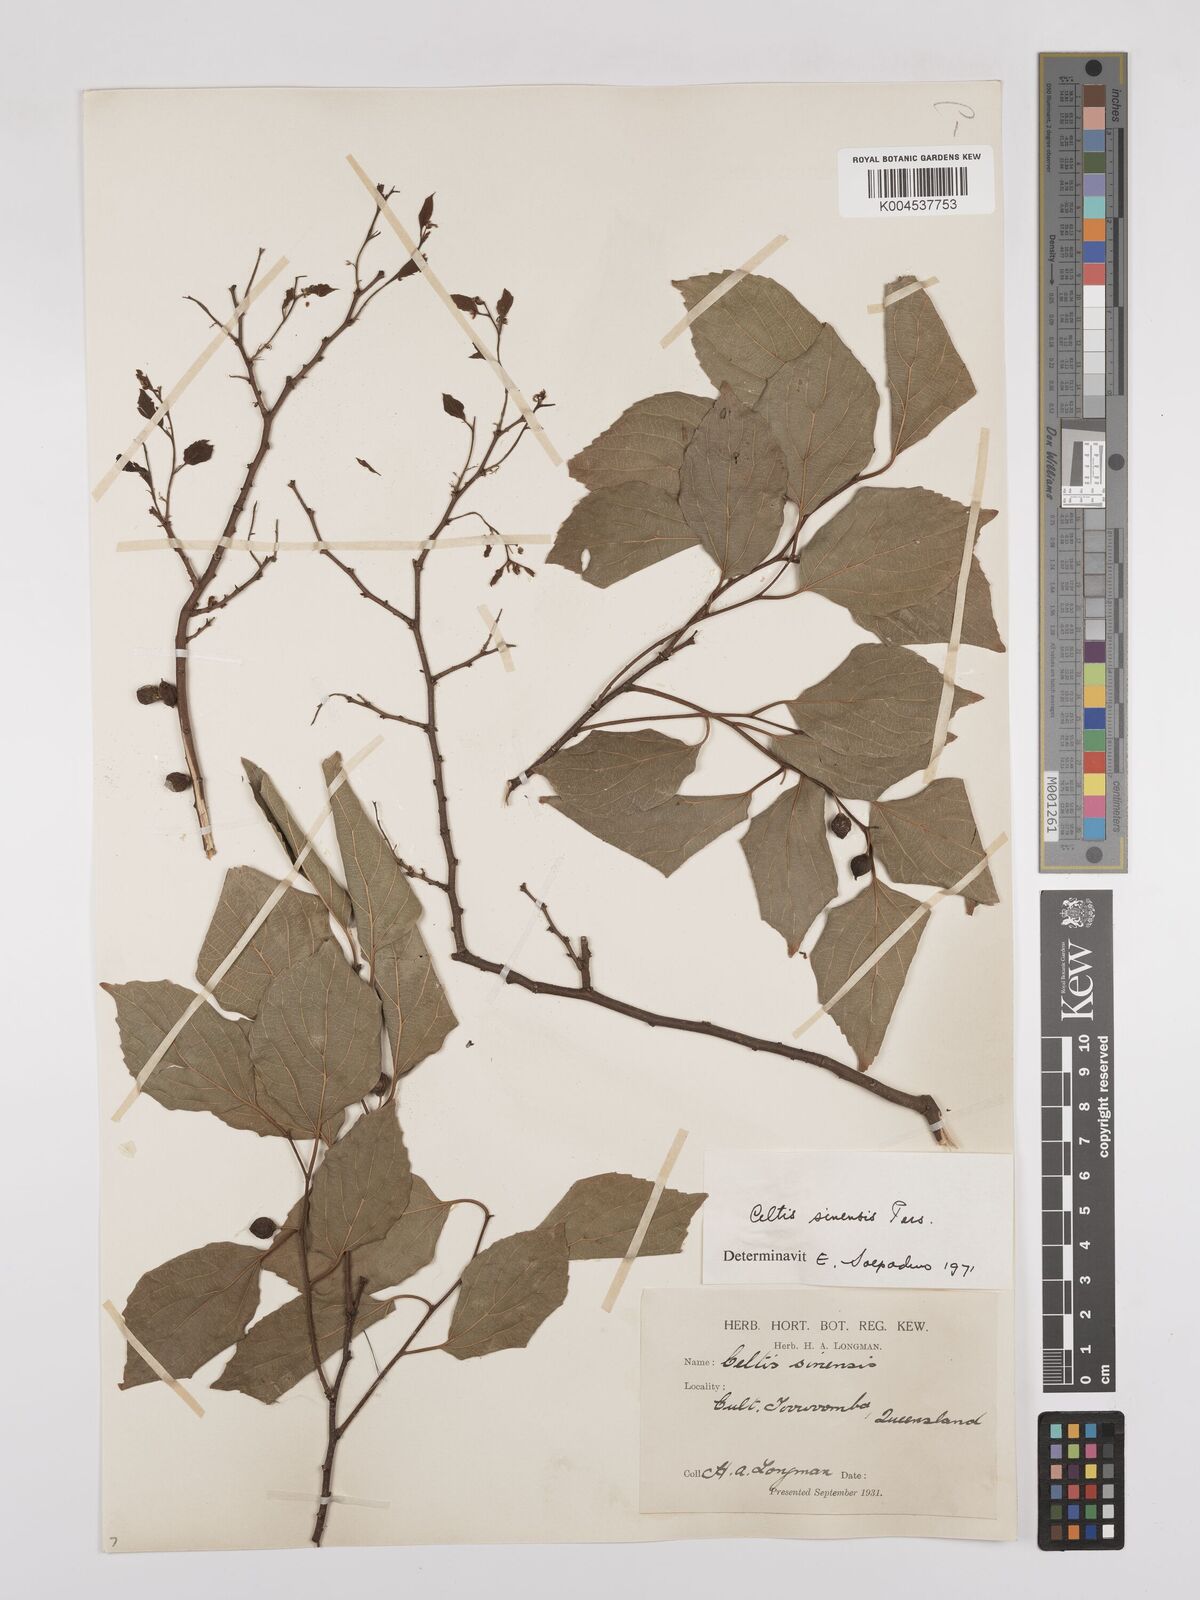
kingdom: Plantae
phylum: Tracheophyta
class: Magnoliopsida
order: Rosales
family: Cannabaceae
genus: Celtis
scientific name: Celtis
